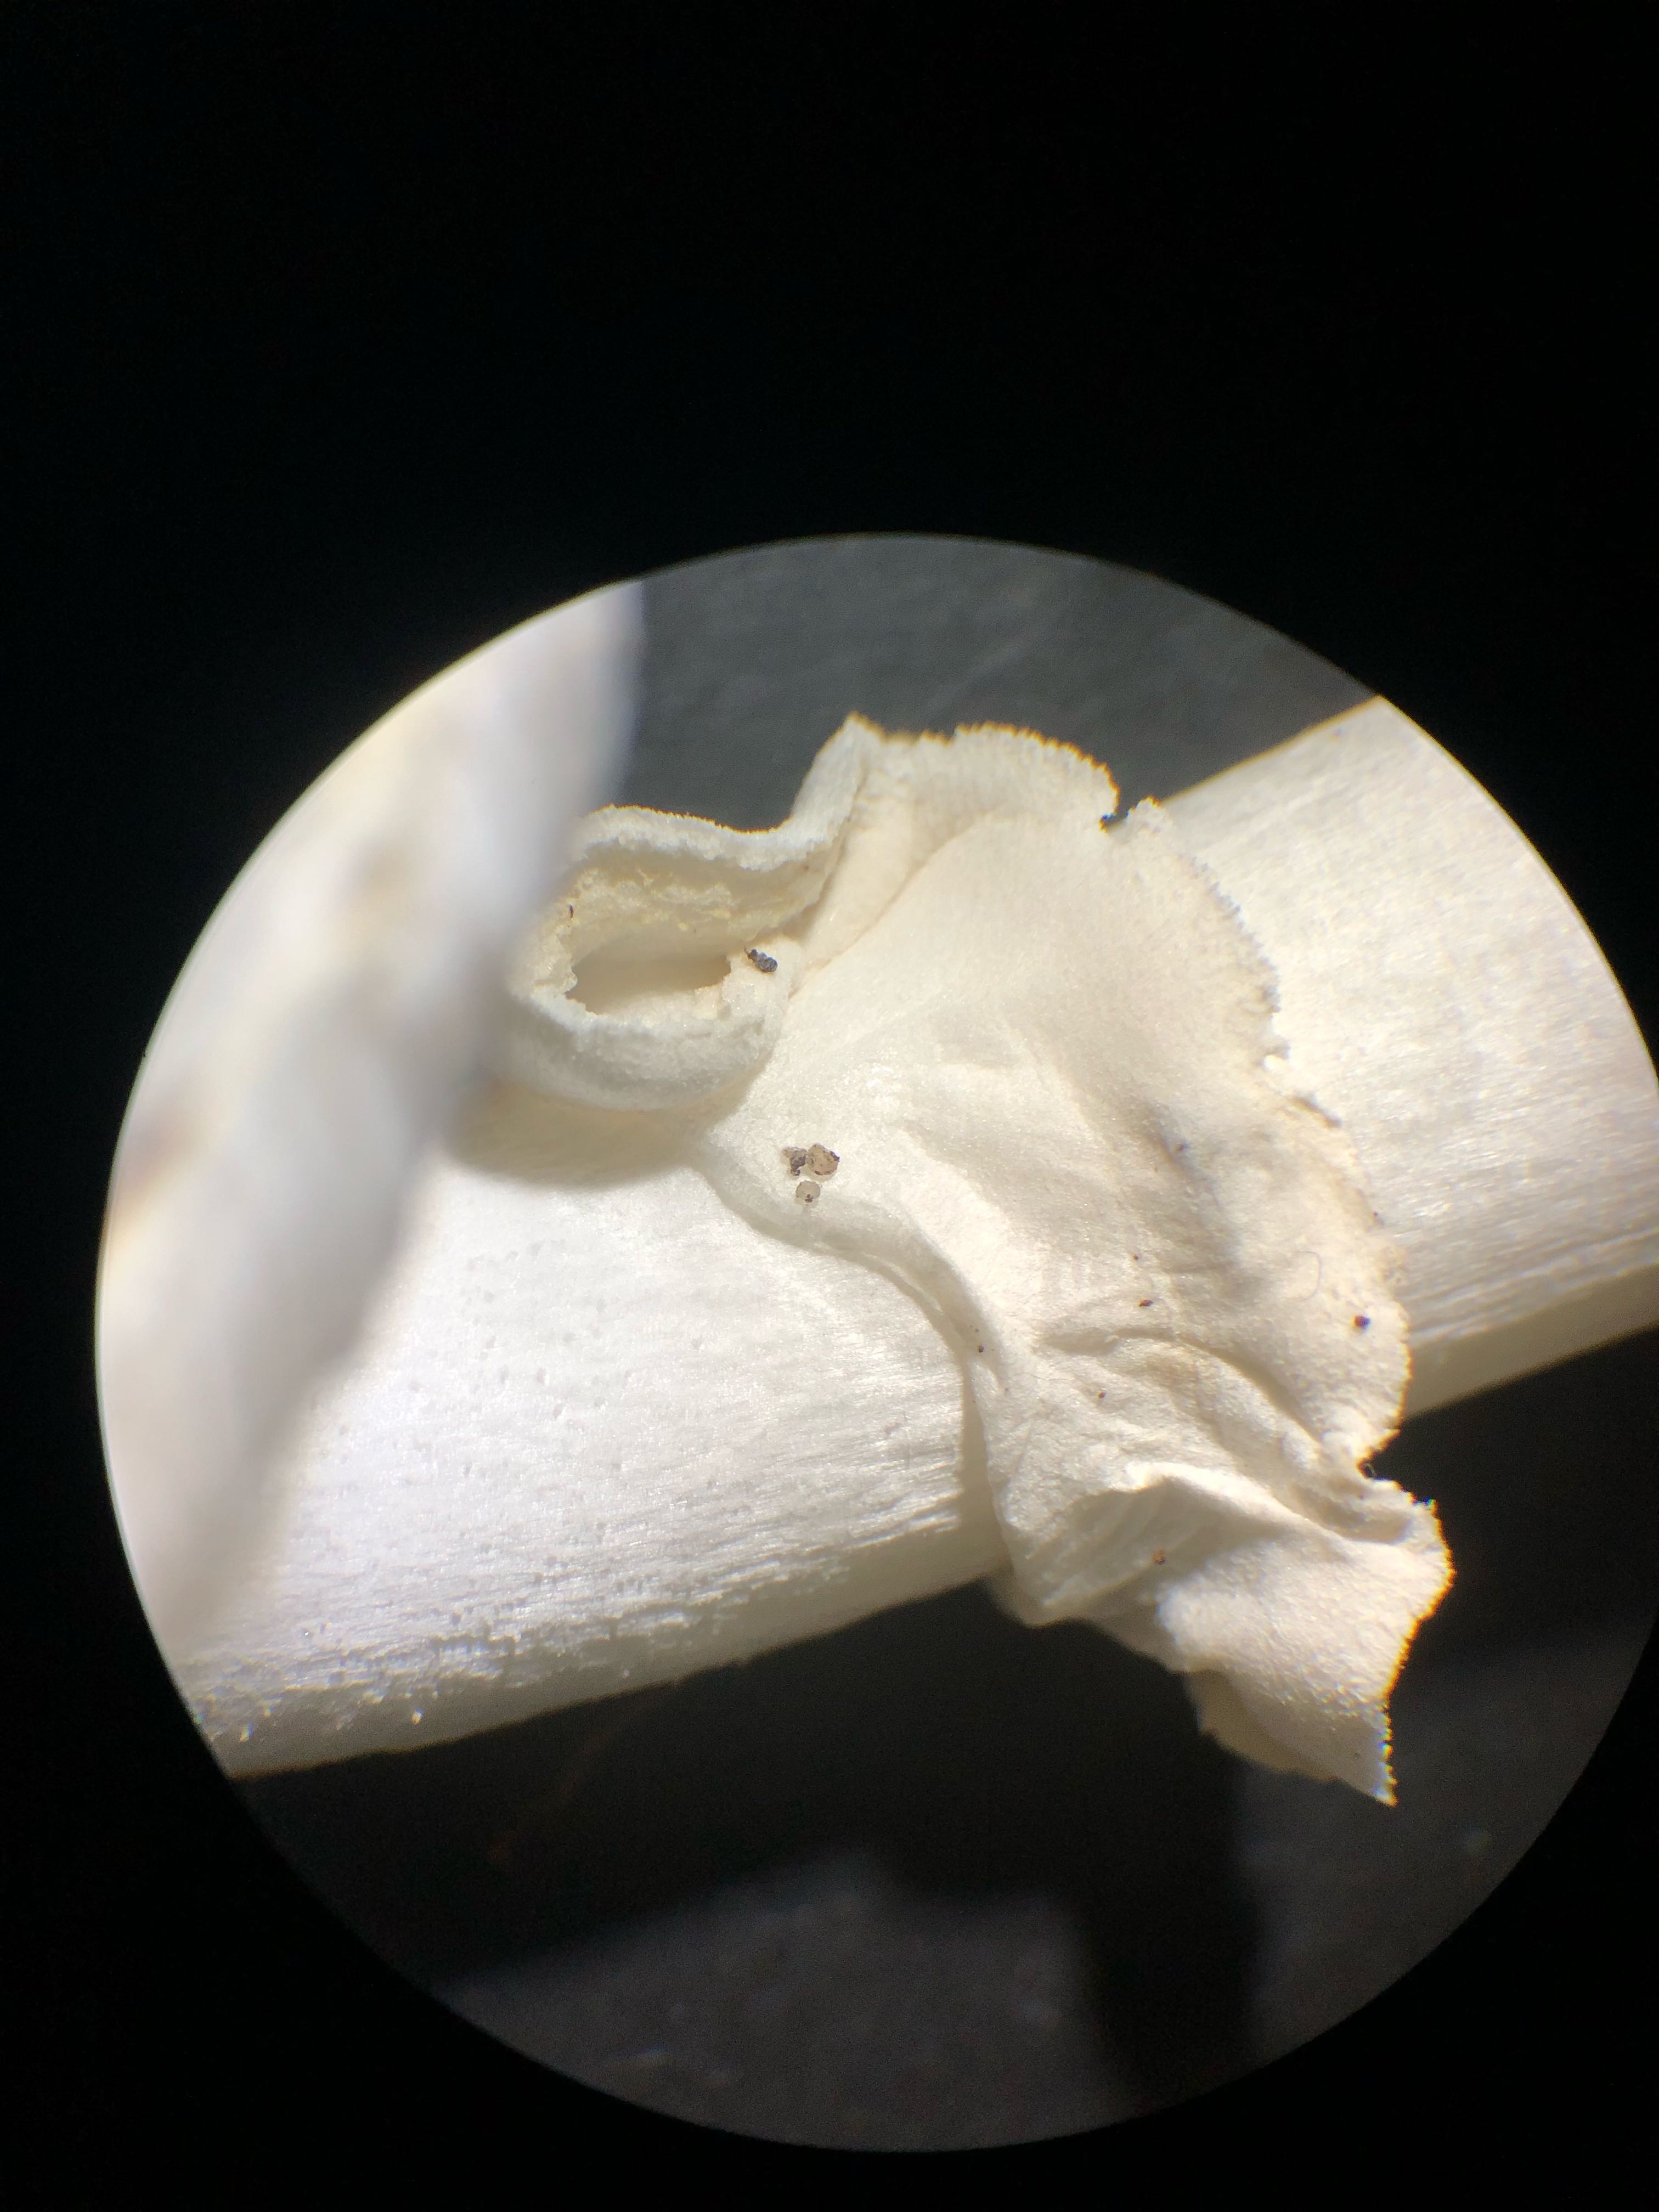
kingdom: Fungi
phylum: Basidiomycota
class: Agaricomycetes
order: Agaricales
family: Amanitaceae
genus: Amanita
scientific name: Amanita citrina
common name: False death-cap
